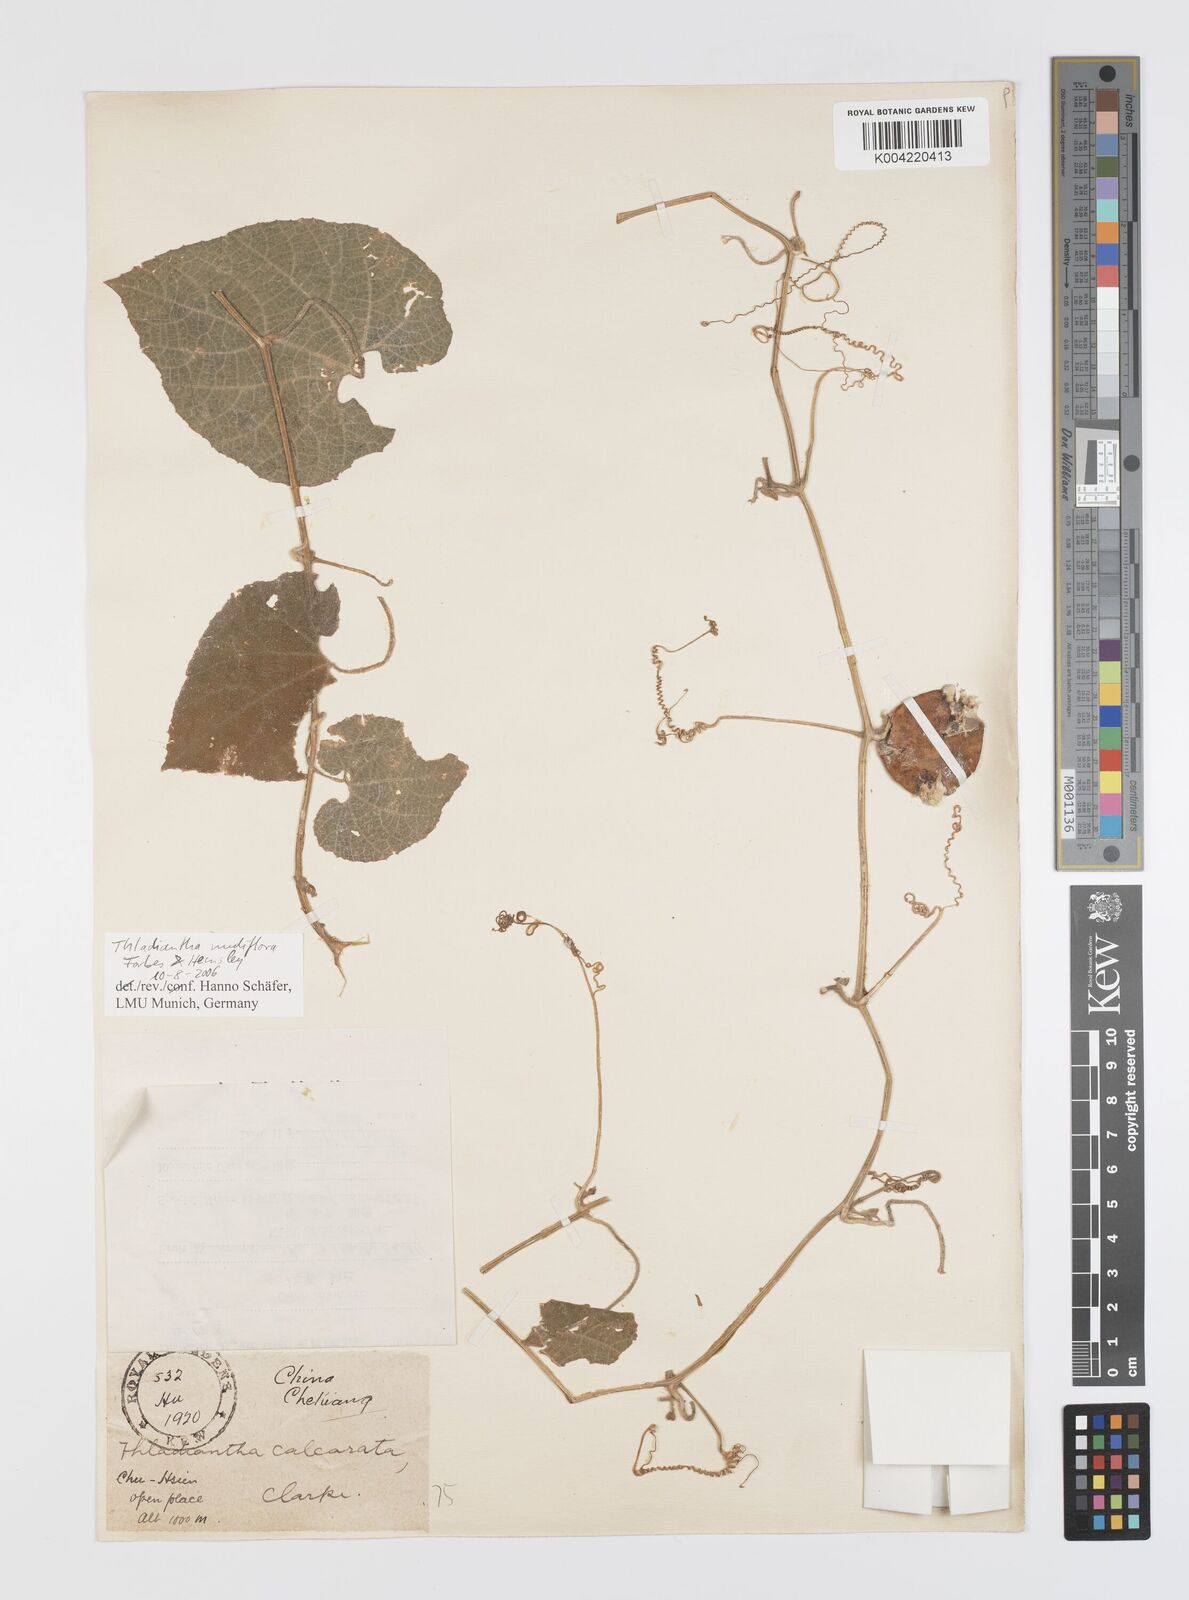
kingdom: Plantae
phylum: Tracheophyta
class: Magnoliopsida
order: Cucurbitales
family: Cucurbitaceae
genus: Thladiantha
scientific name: Thladiantha nudiflora
